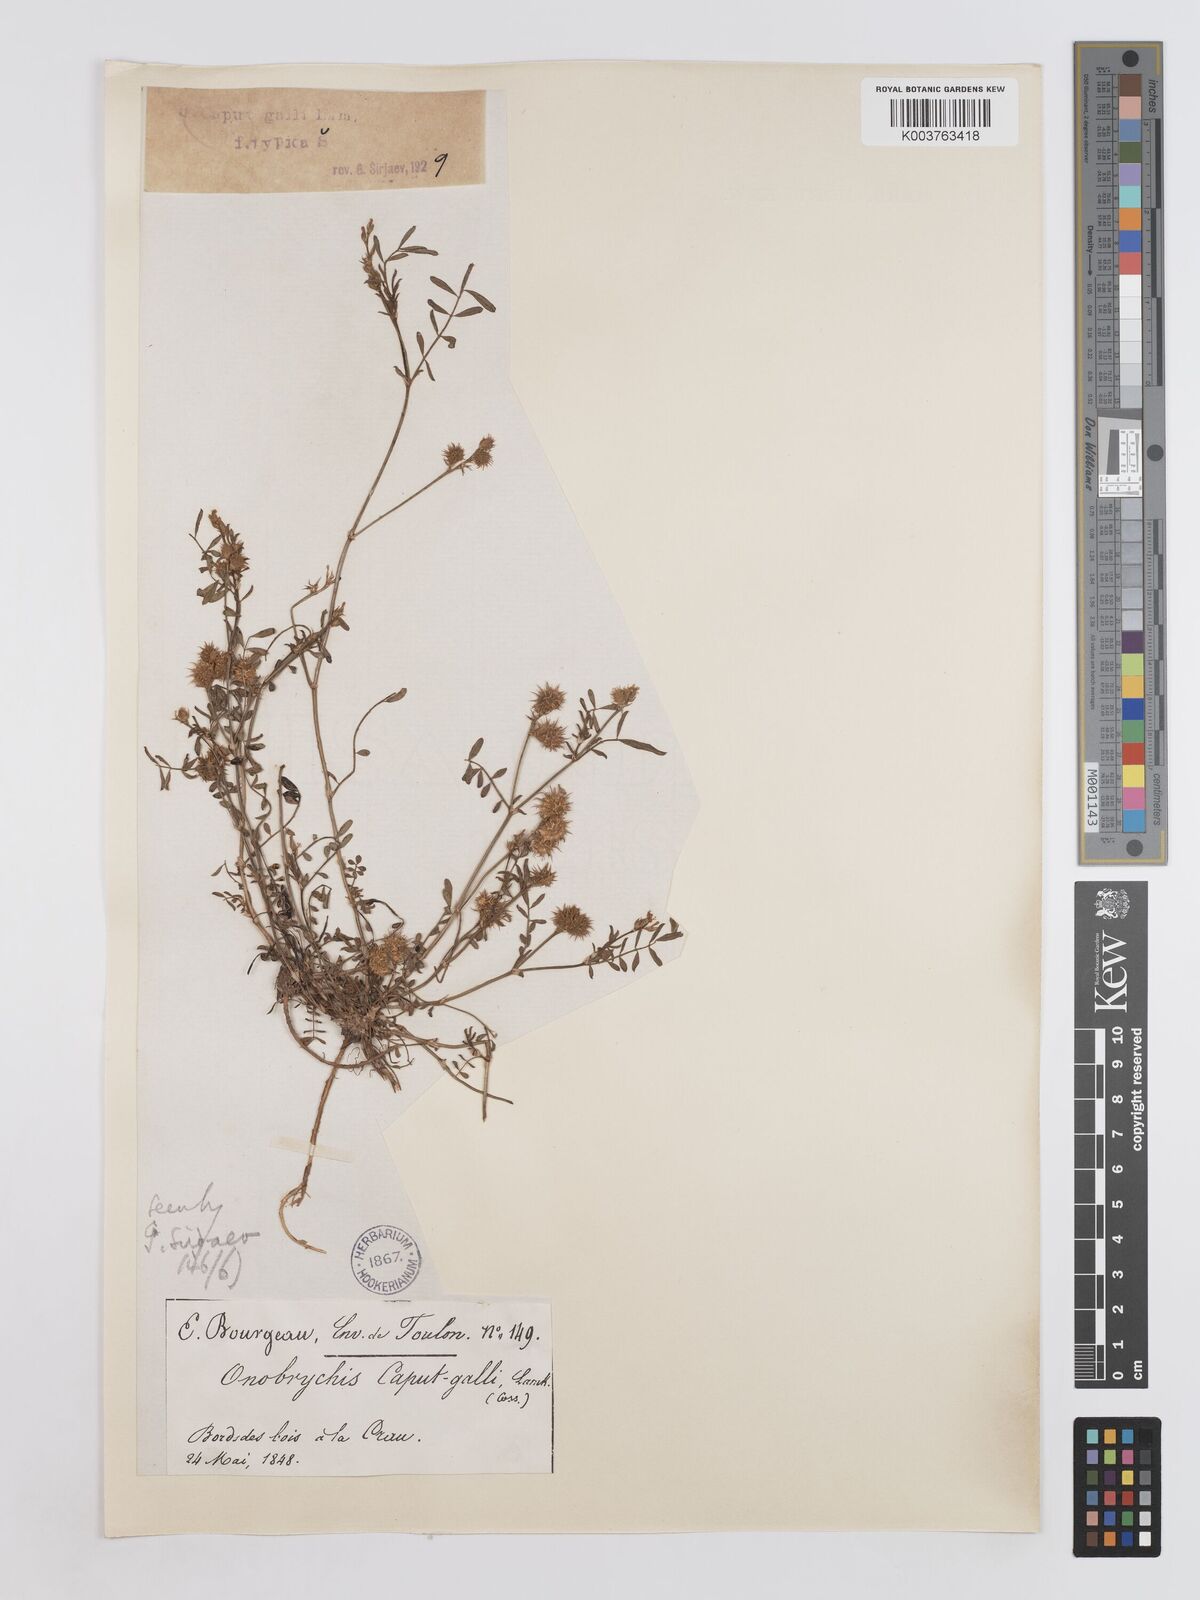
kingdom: Plantae
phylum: Tracheophyta
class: Magnoliopsida
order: Fabales
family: Fabaceae
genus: Onobrychis
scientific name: Onobrychis caput-galli
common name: Cockscomb sainfoin
